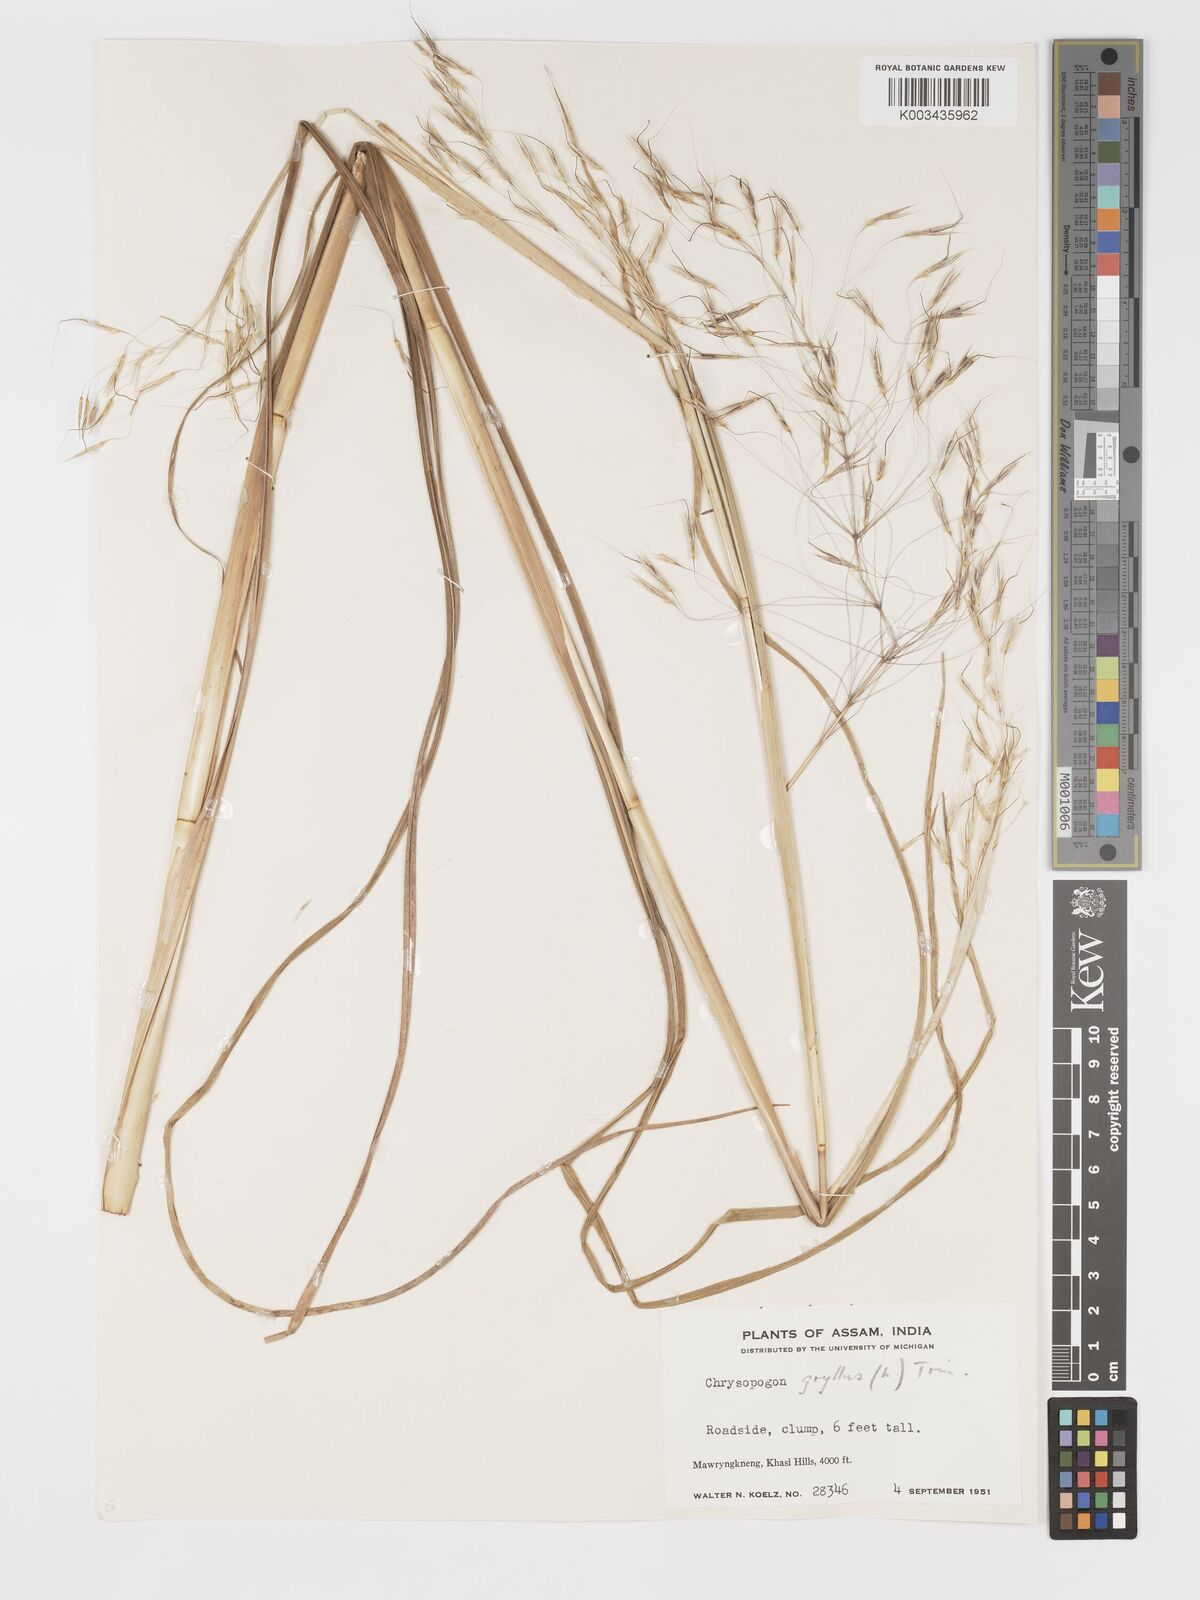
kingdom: Plantae
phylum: Tracheophyta
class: Liliopsida
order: Poales
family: Poaceae
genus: Chrysopogon
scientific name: Chrysopogon gryllus
